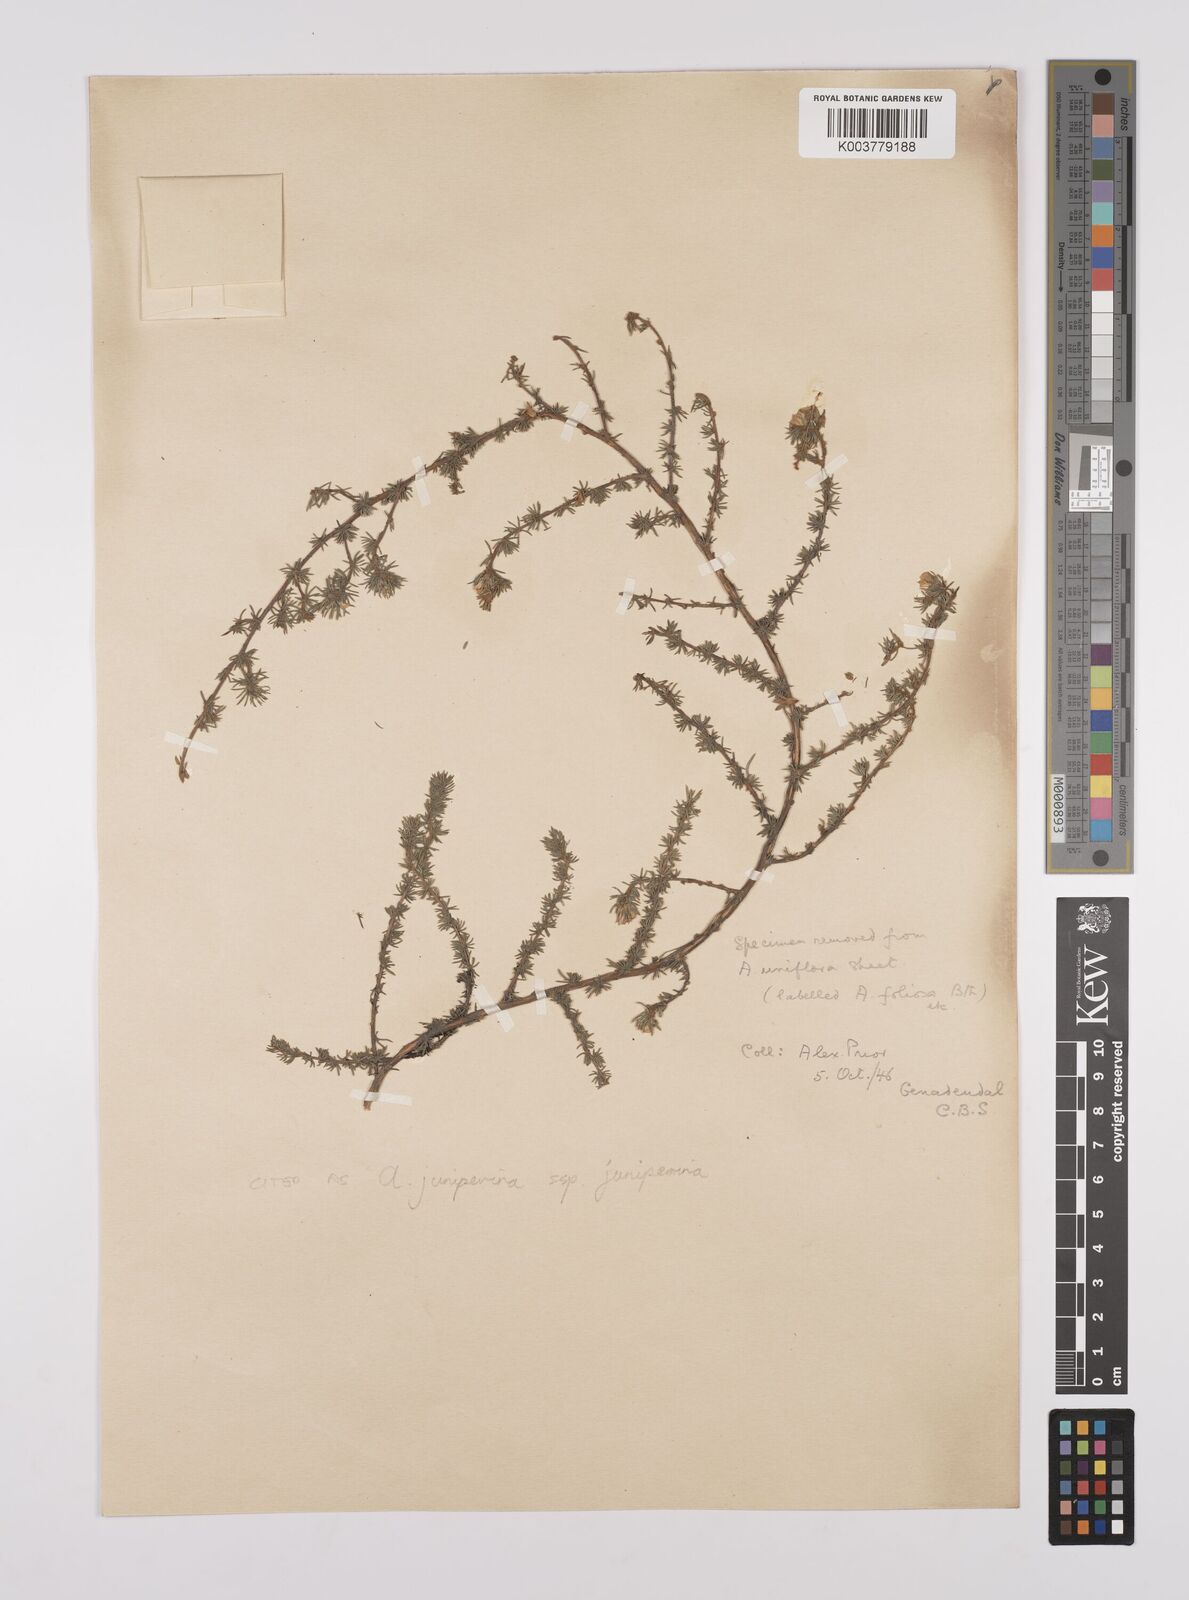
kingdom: Plantae
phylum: Tracheophyta
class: Magnoliopsida
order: Fabales
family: Fabaceae
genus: Aspalathus
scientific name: Aspalathus juniperina
